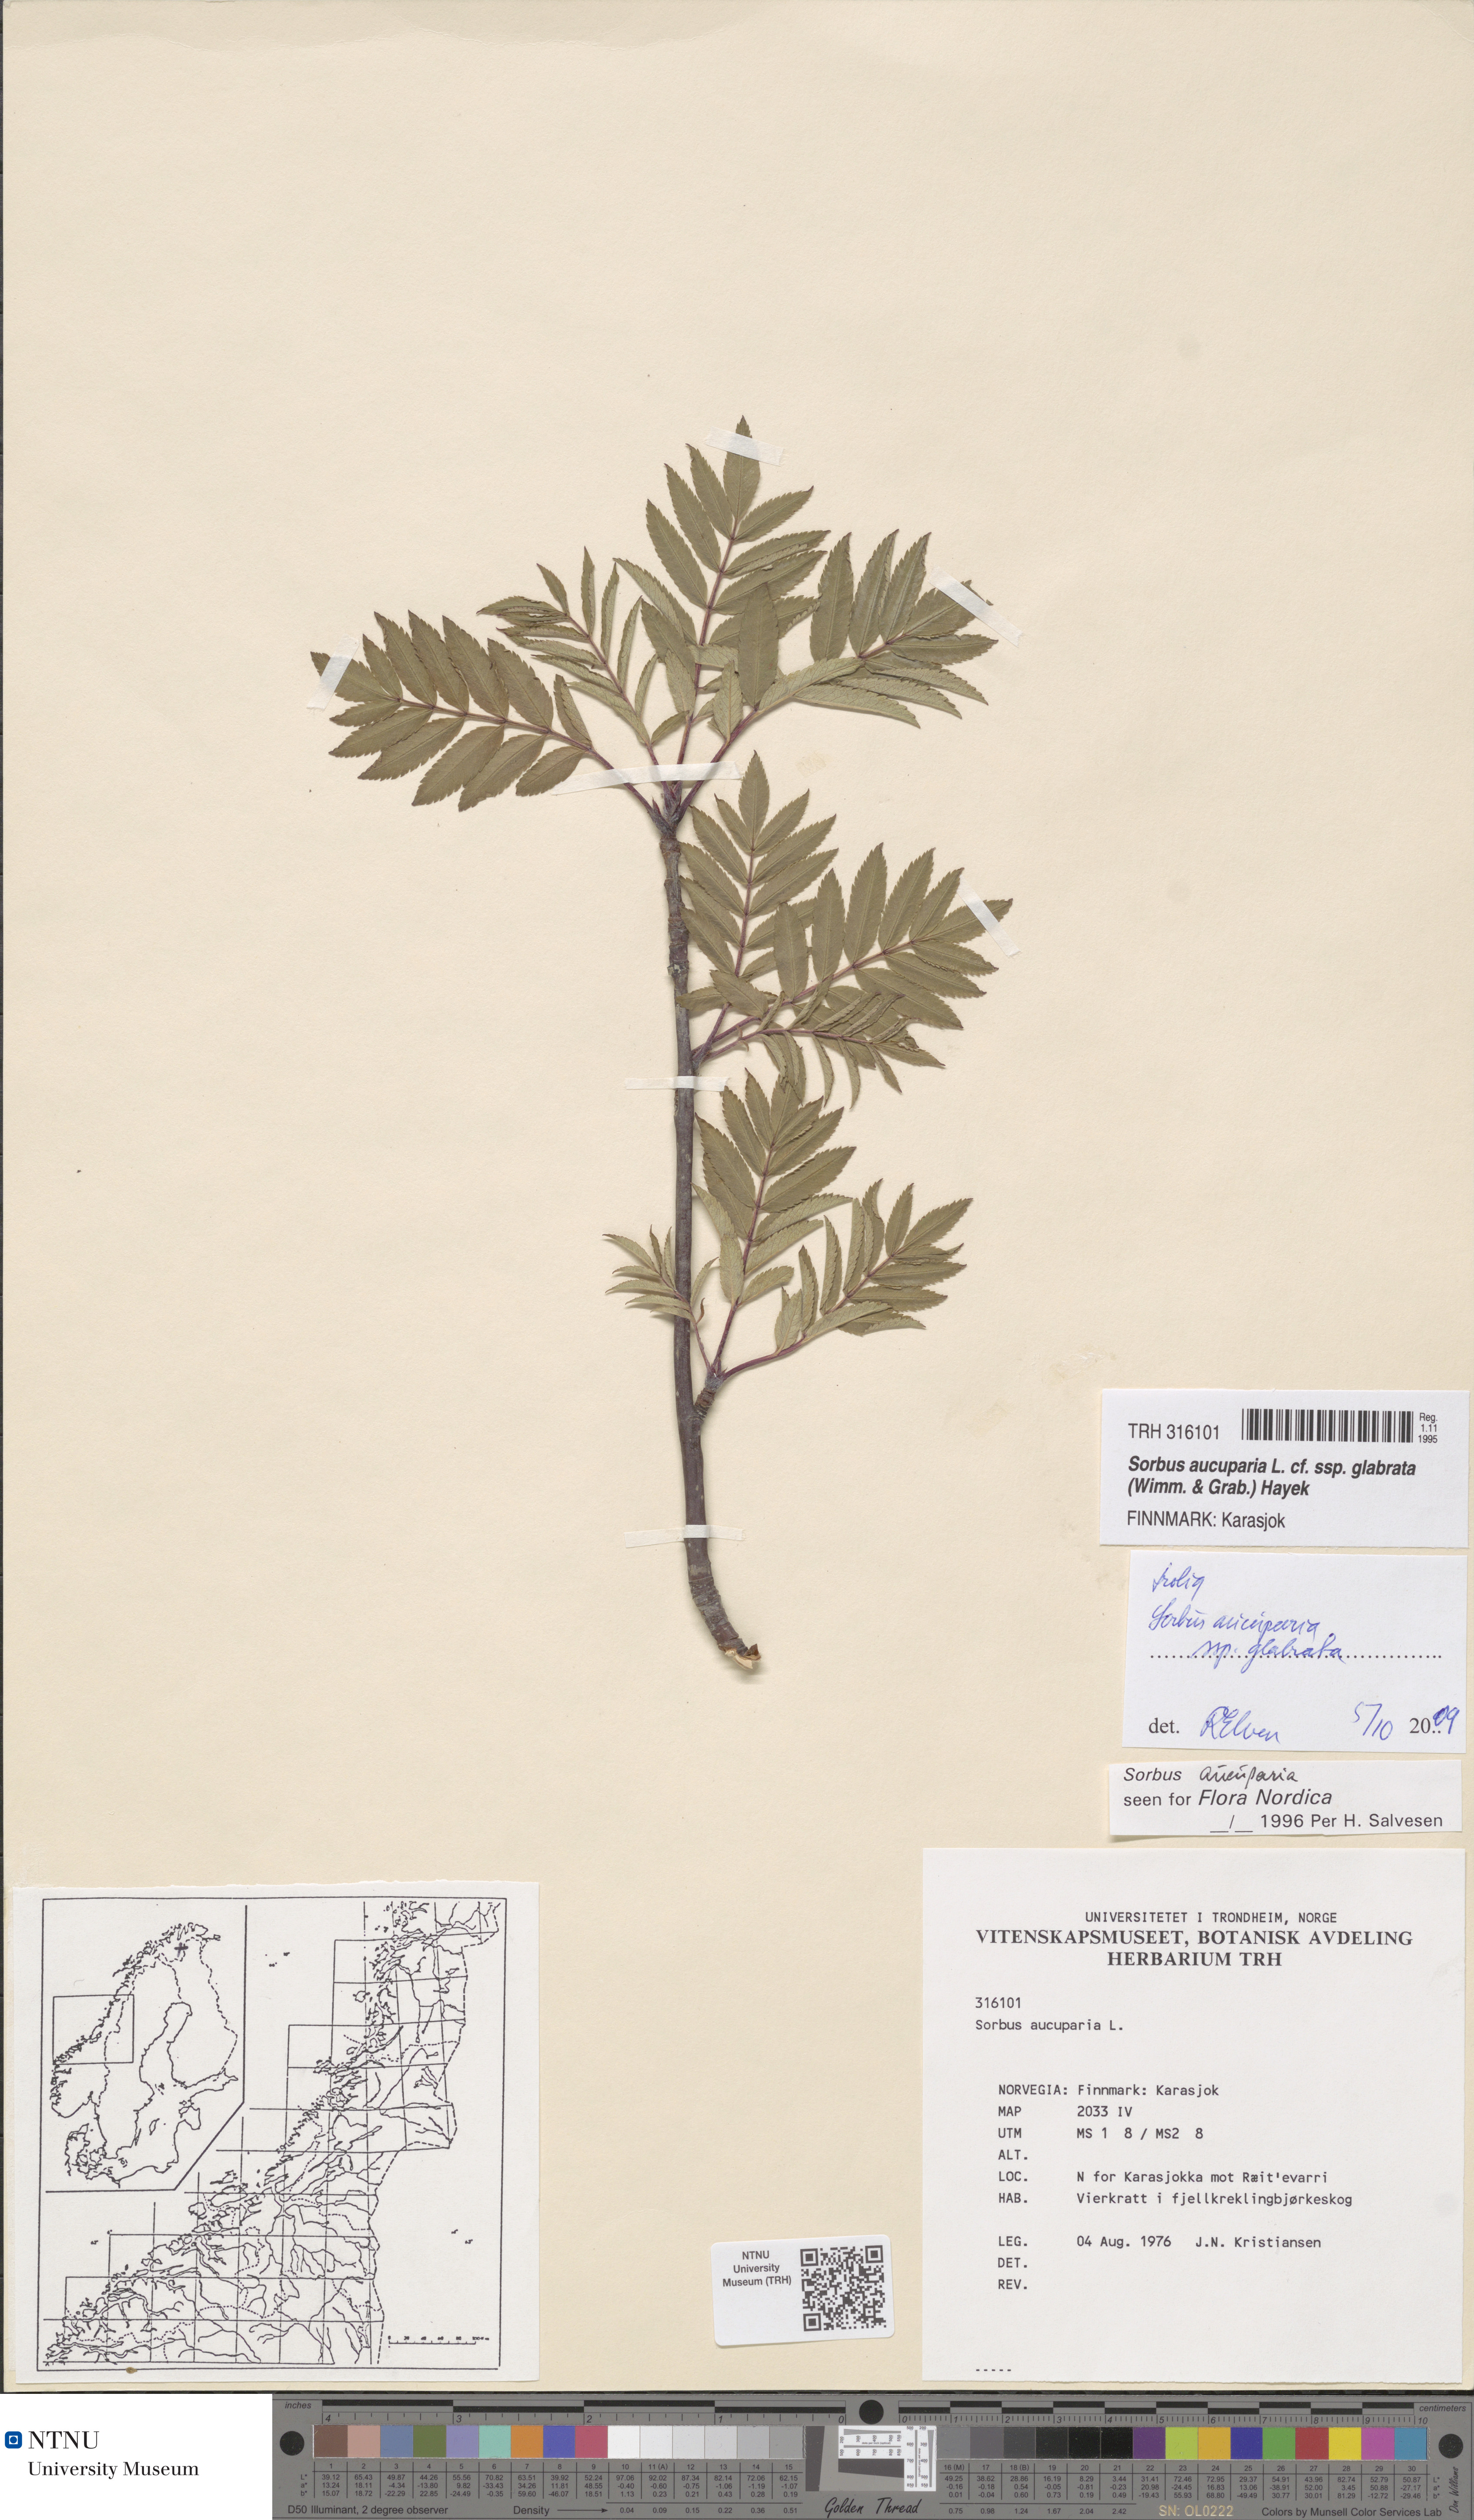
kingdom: Plantae
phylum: Tracheophyta
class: Magnoliopsida
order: Rosales
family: Rosaceae
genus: Sorbus
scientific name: Sorbus aucuparia
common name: Rowan
